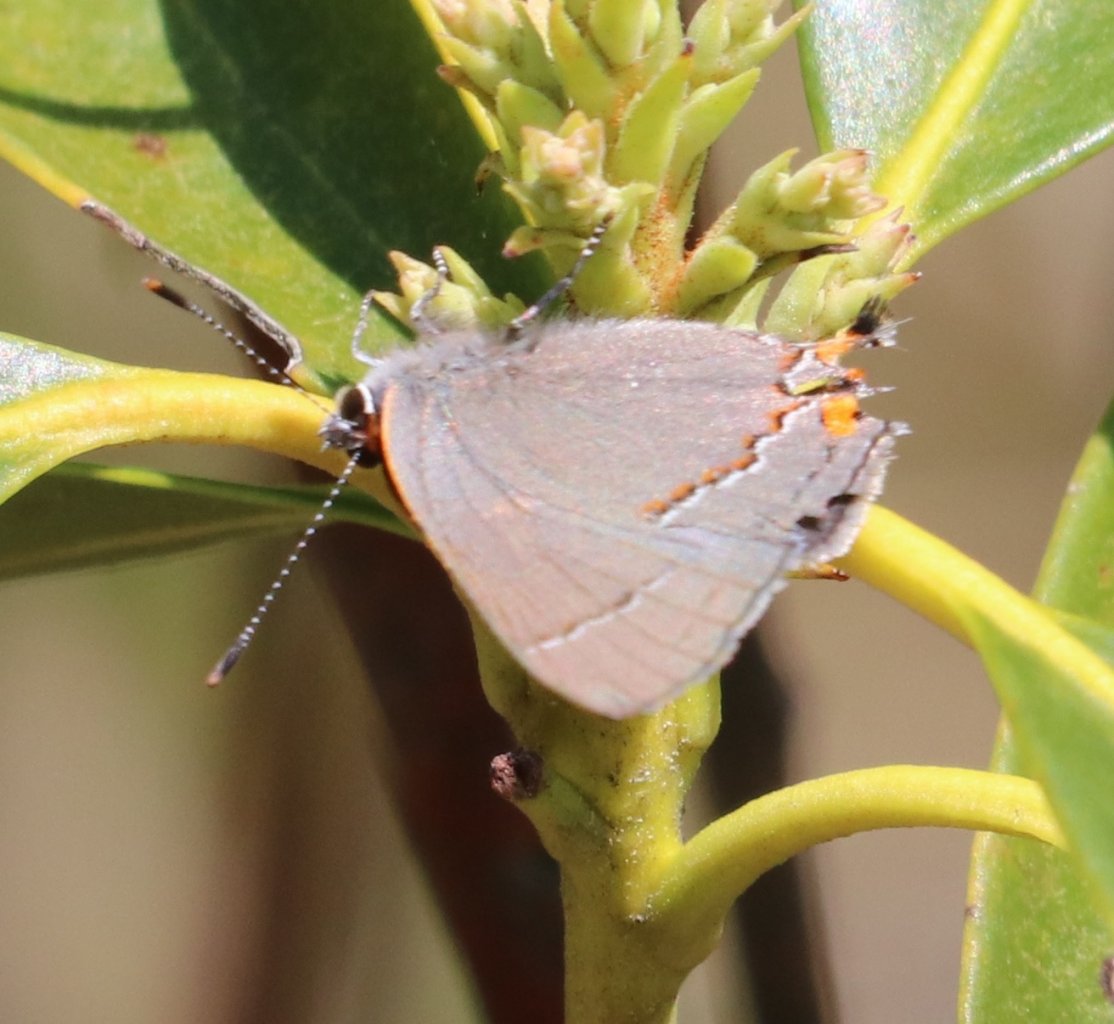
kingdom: Animalia
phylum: Arthropoda
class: Insecta
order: Lepidoptera
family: Lycaenidae
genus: Strymon
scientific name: Strymon melinus
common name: Gray Hairstreak
